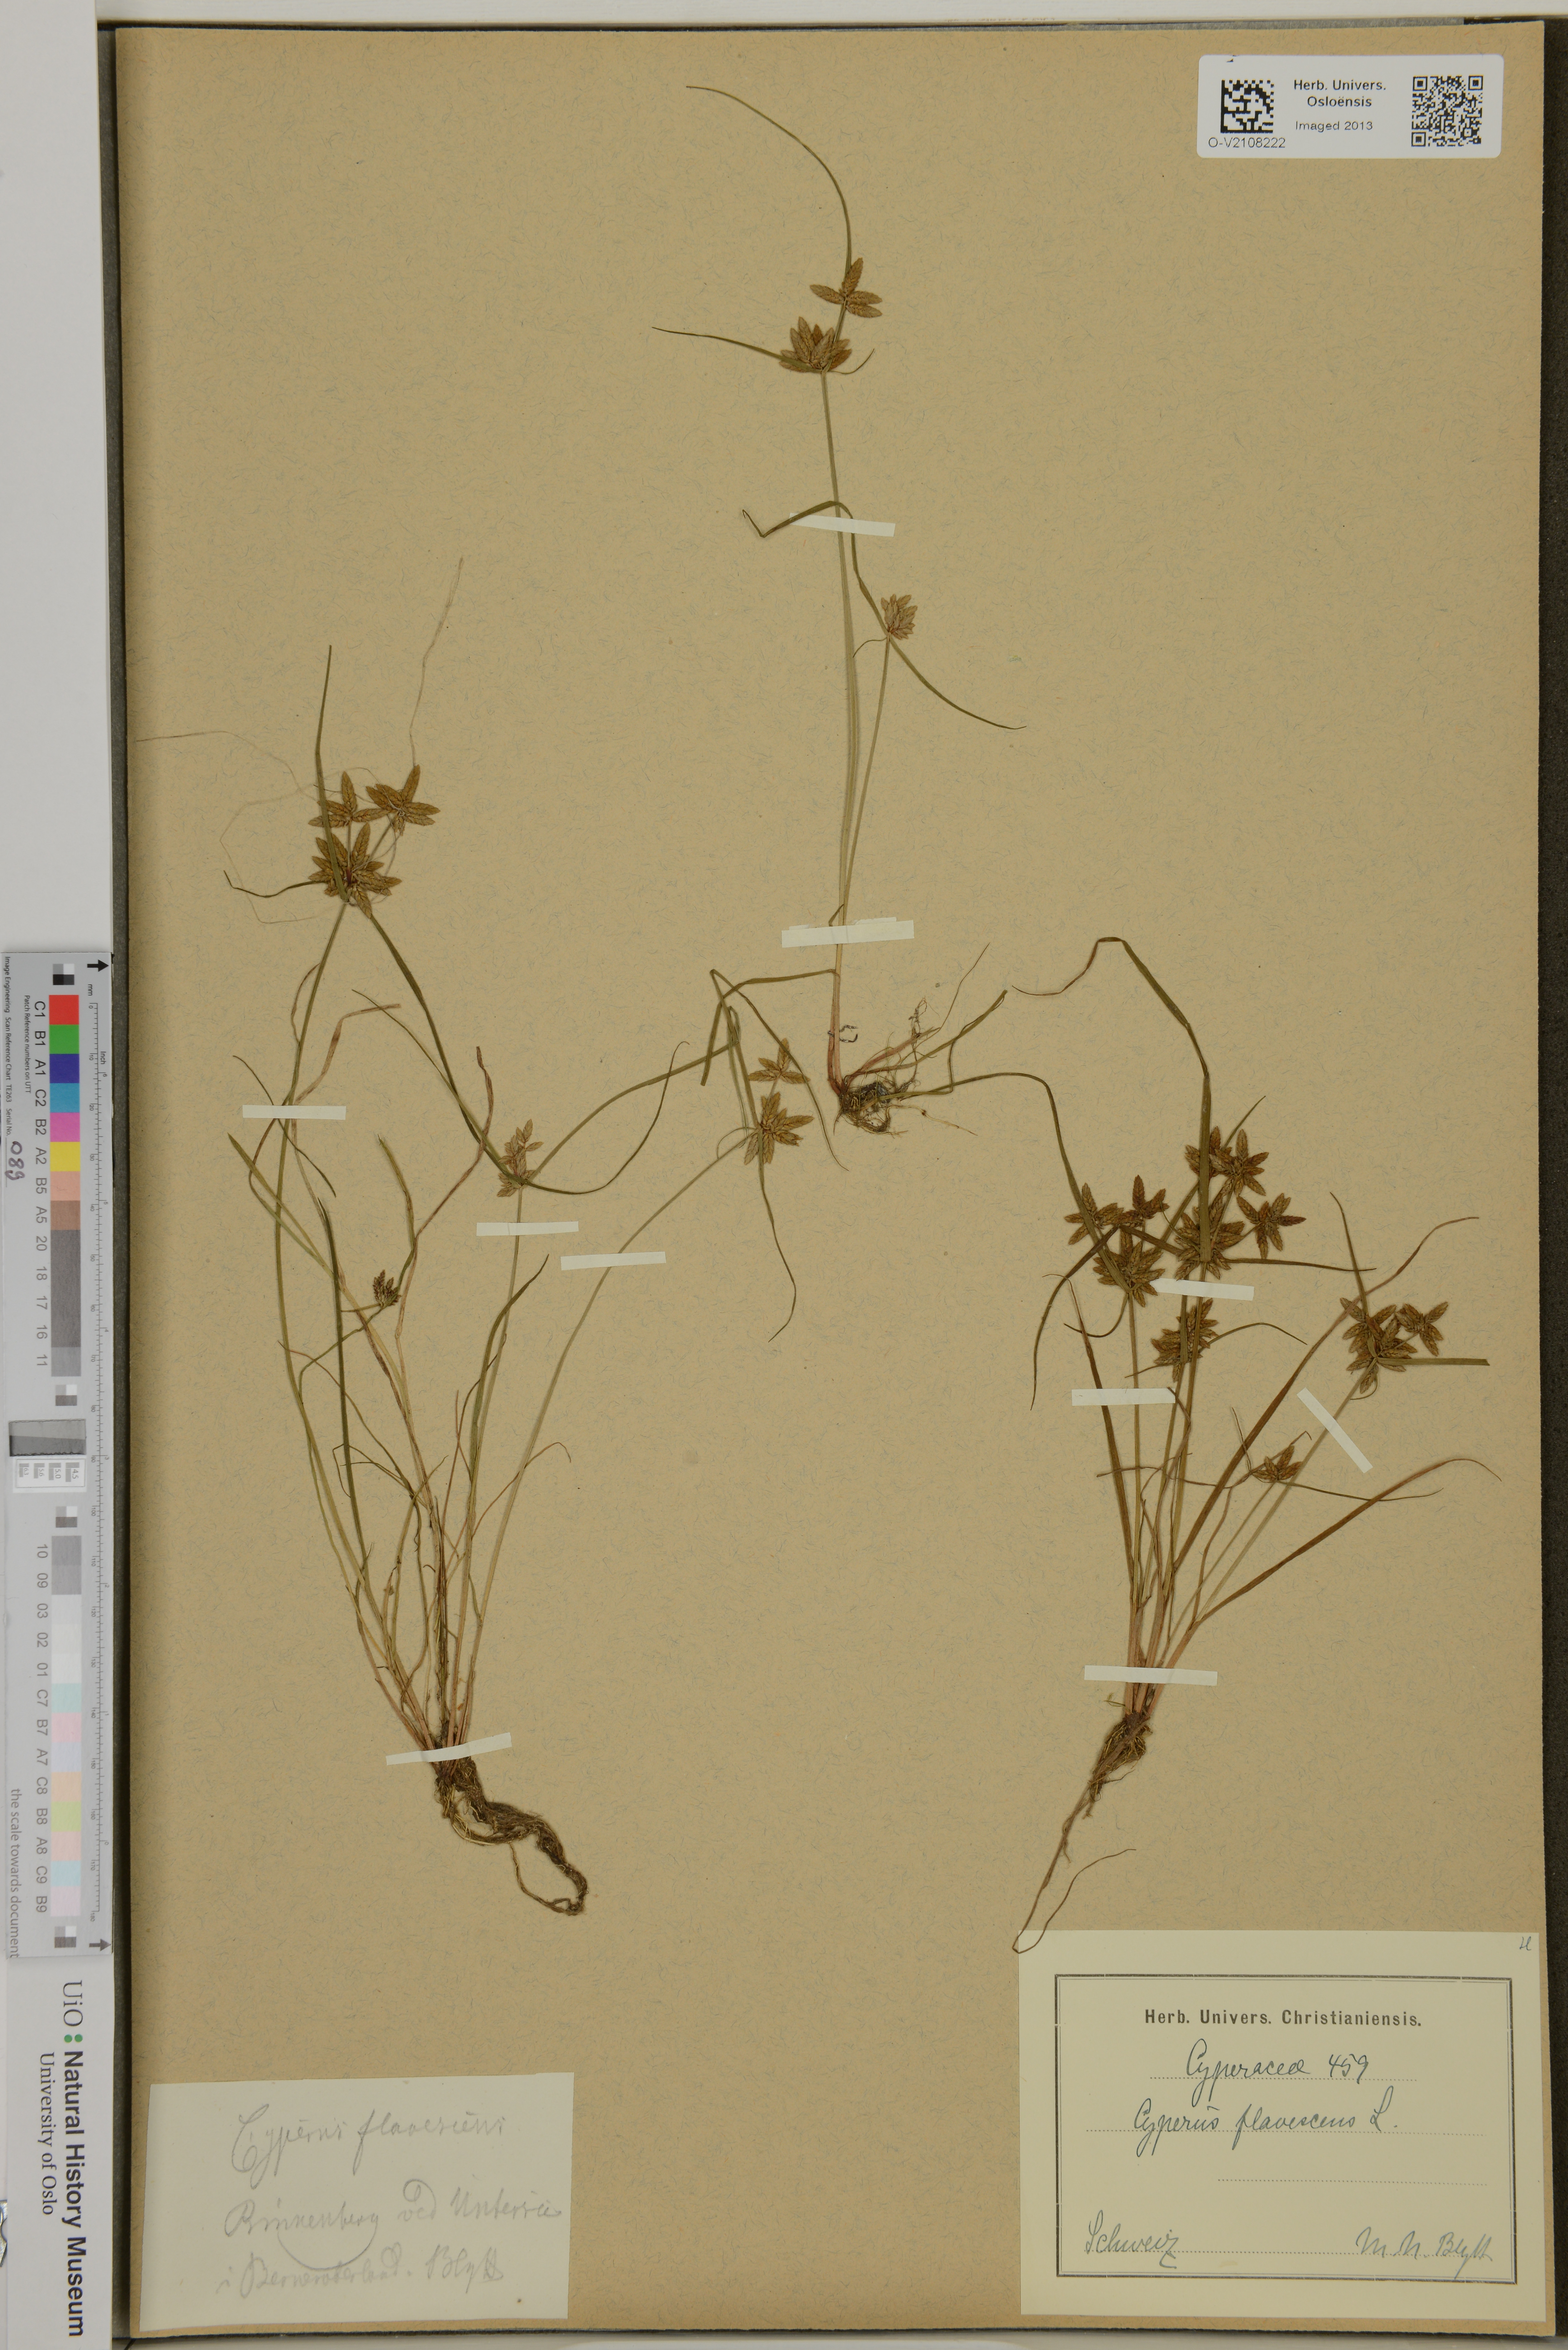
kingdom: Plantae
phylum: Tracheophyta
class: Liliopsida
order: Poales
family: Cyperaceae
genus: Cyperus
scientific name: Cyperus flavescens
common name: Yellow galingale
